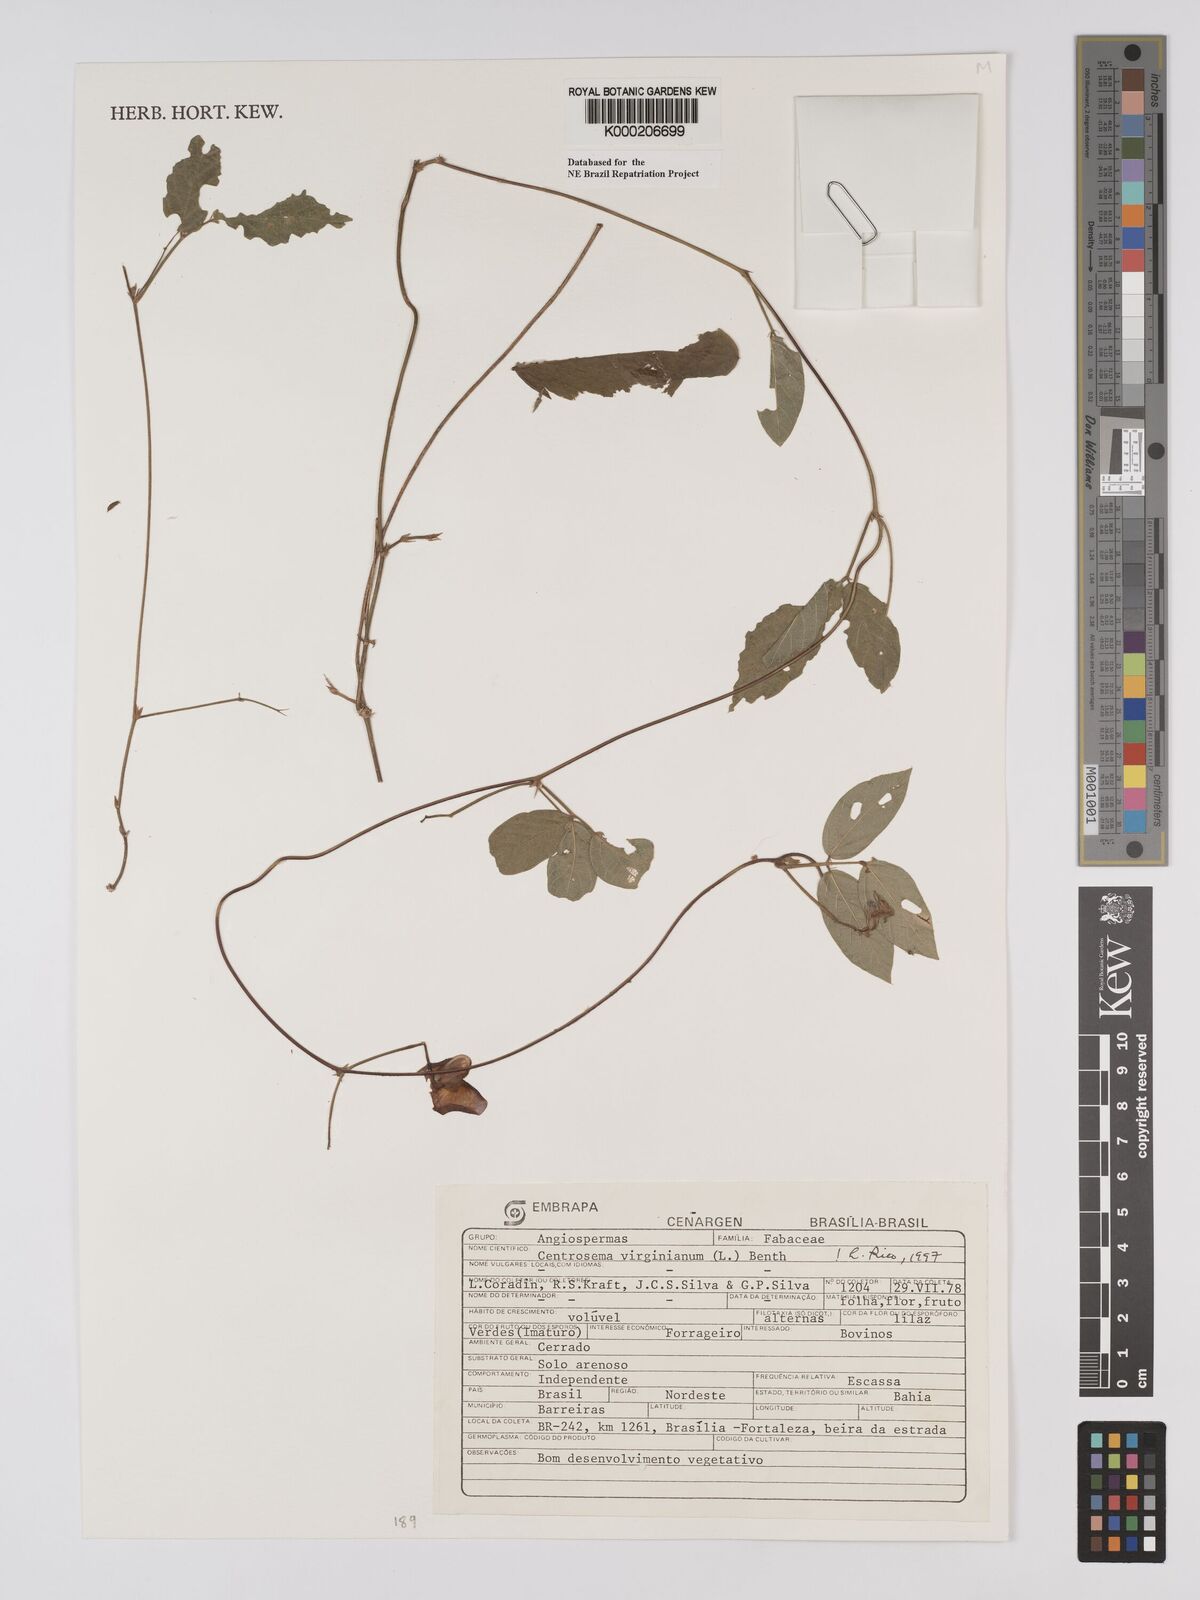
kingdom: Plantae
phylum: Tracheophyta
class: Magnoliopsida
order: Fabales
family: Fabaceae
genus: Centrosema
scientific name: Centrosema virginianum
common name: Butterfly-pea
